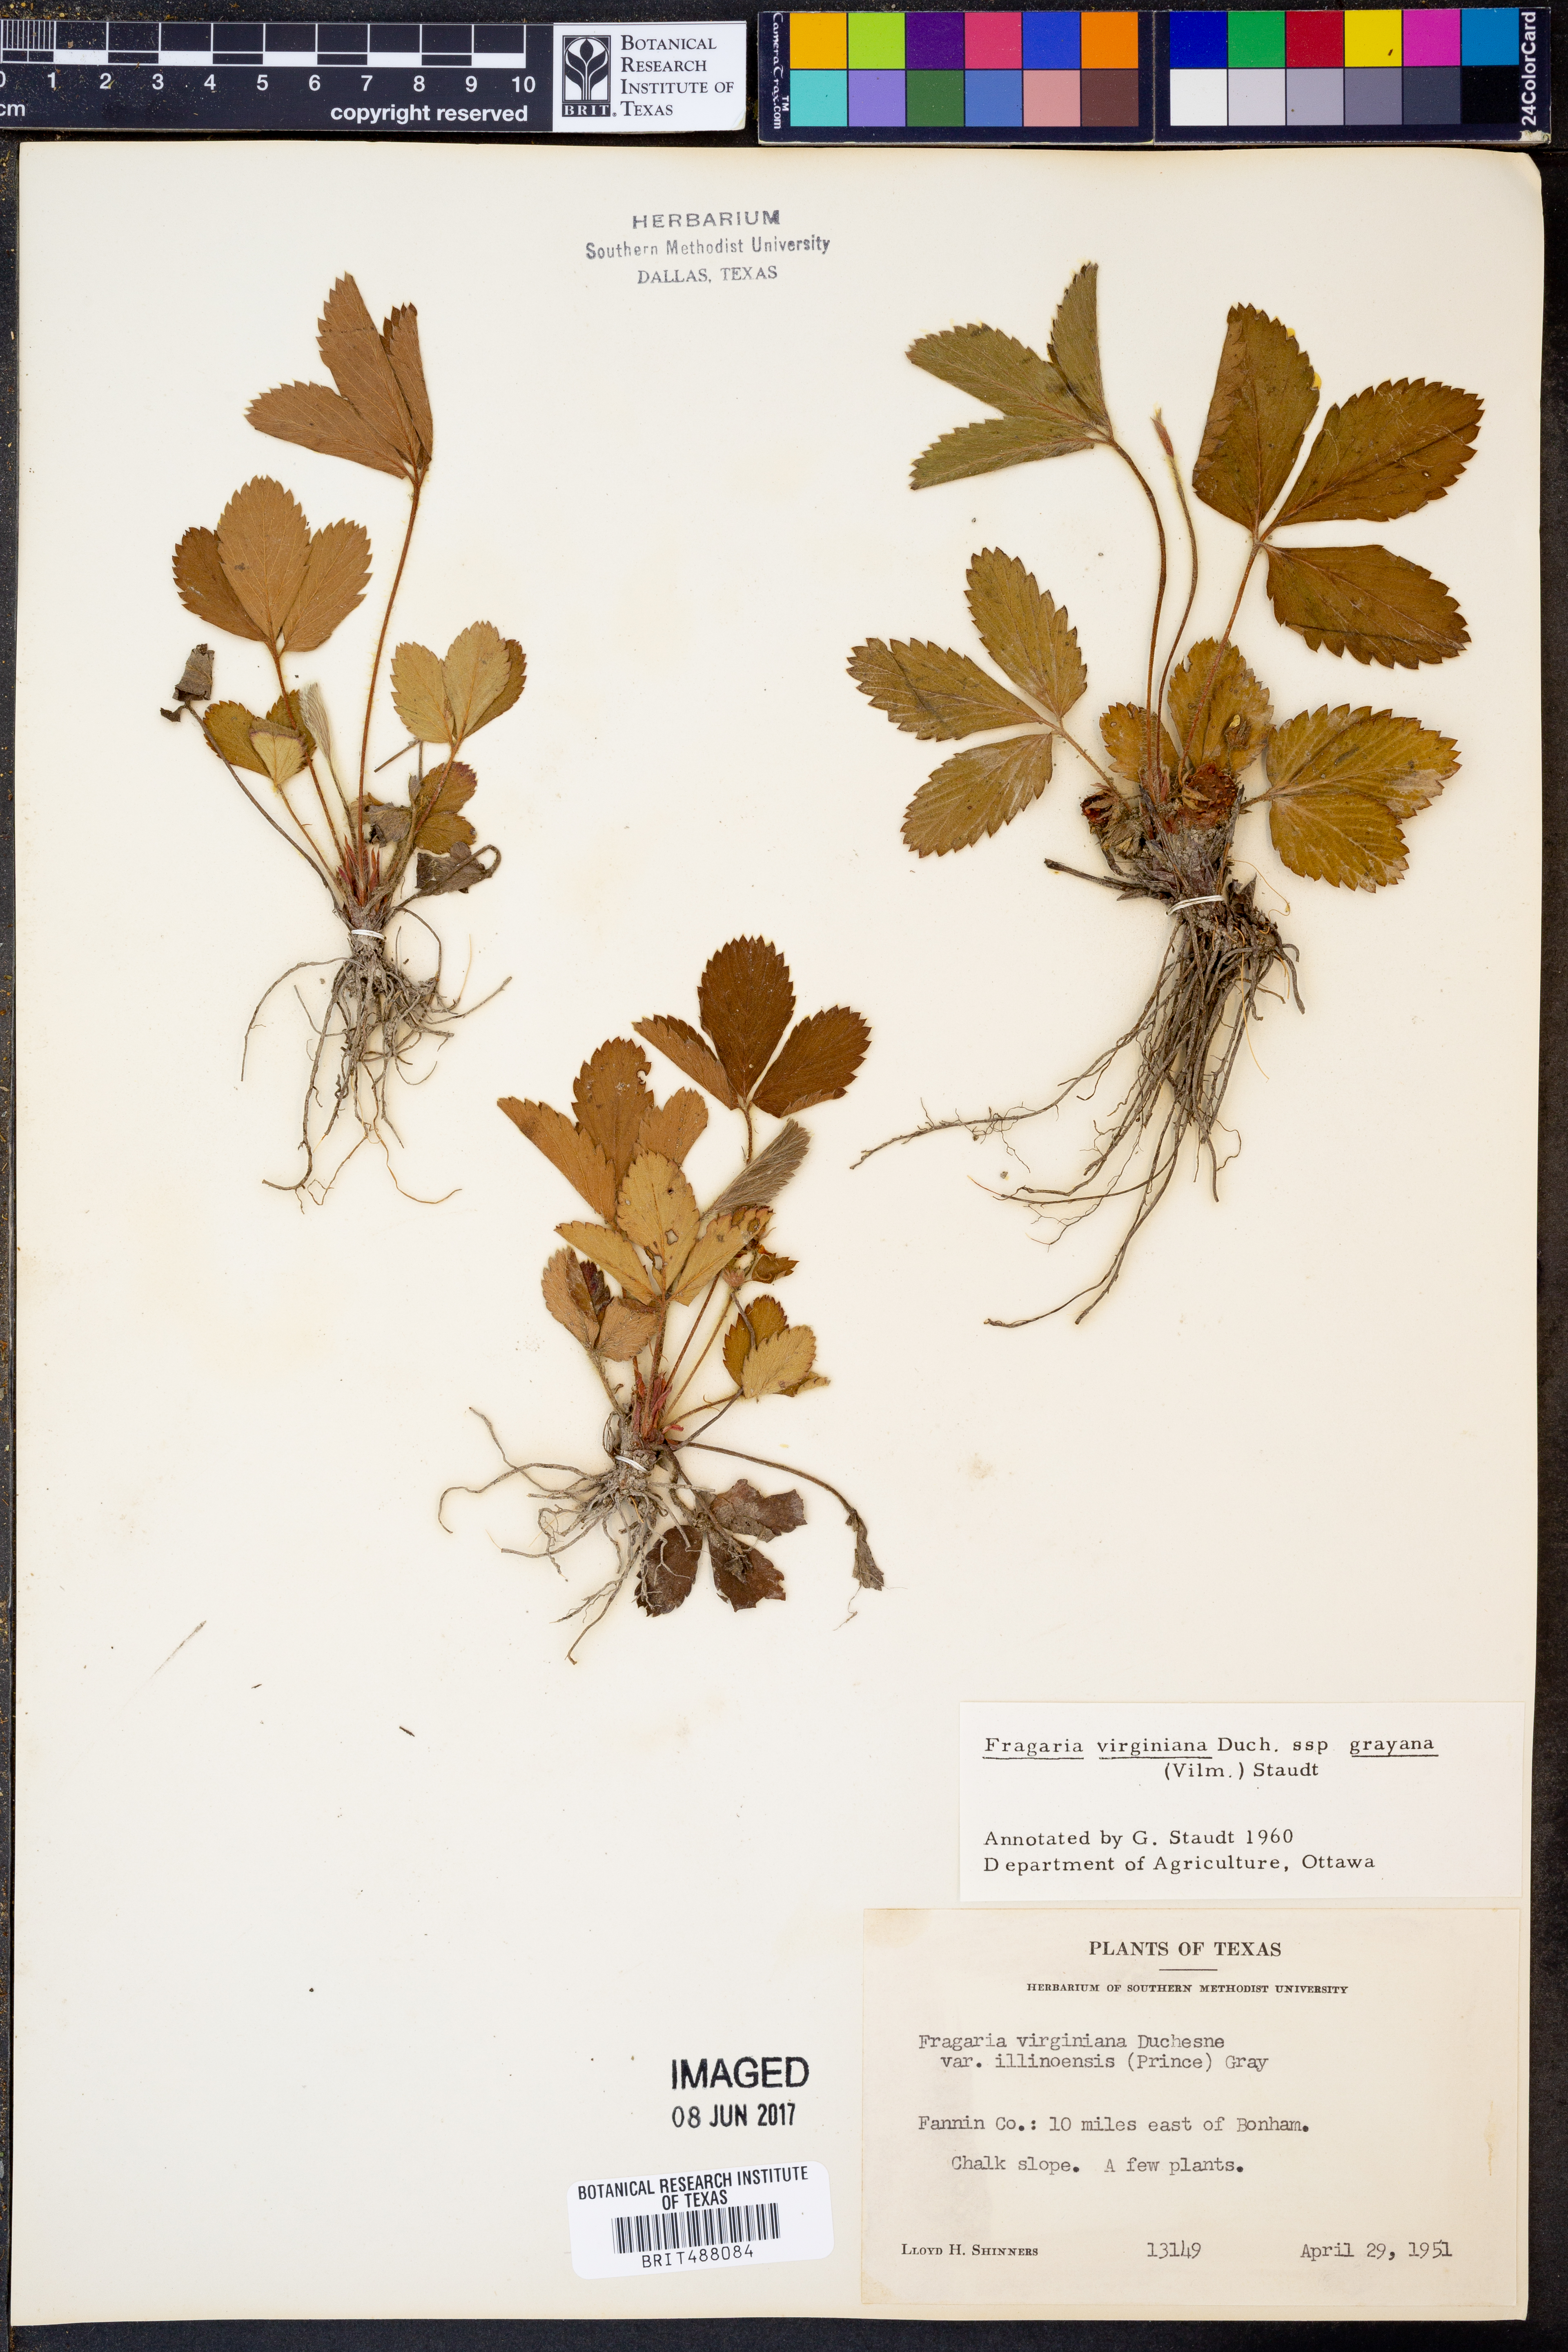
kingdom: Plantae
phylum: Tracheophyta
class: Magnoliopsida
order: Rosales
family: Rosaceae
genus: Fragaria
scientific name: Fragaria virginiana
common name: Thickleaved wild strawberry
